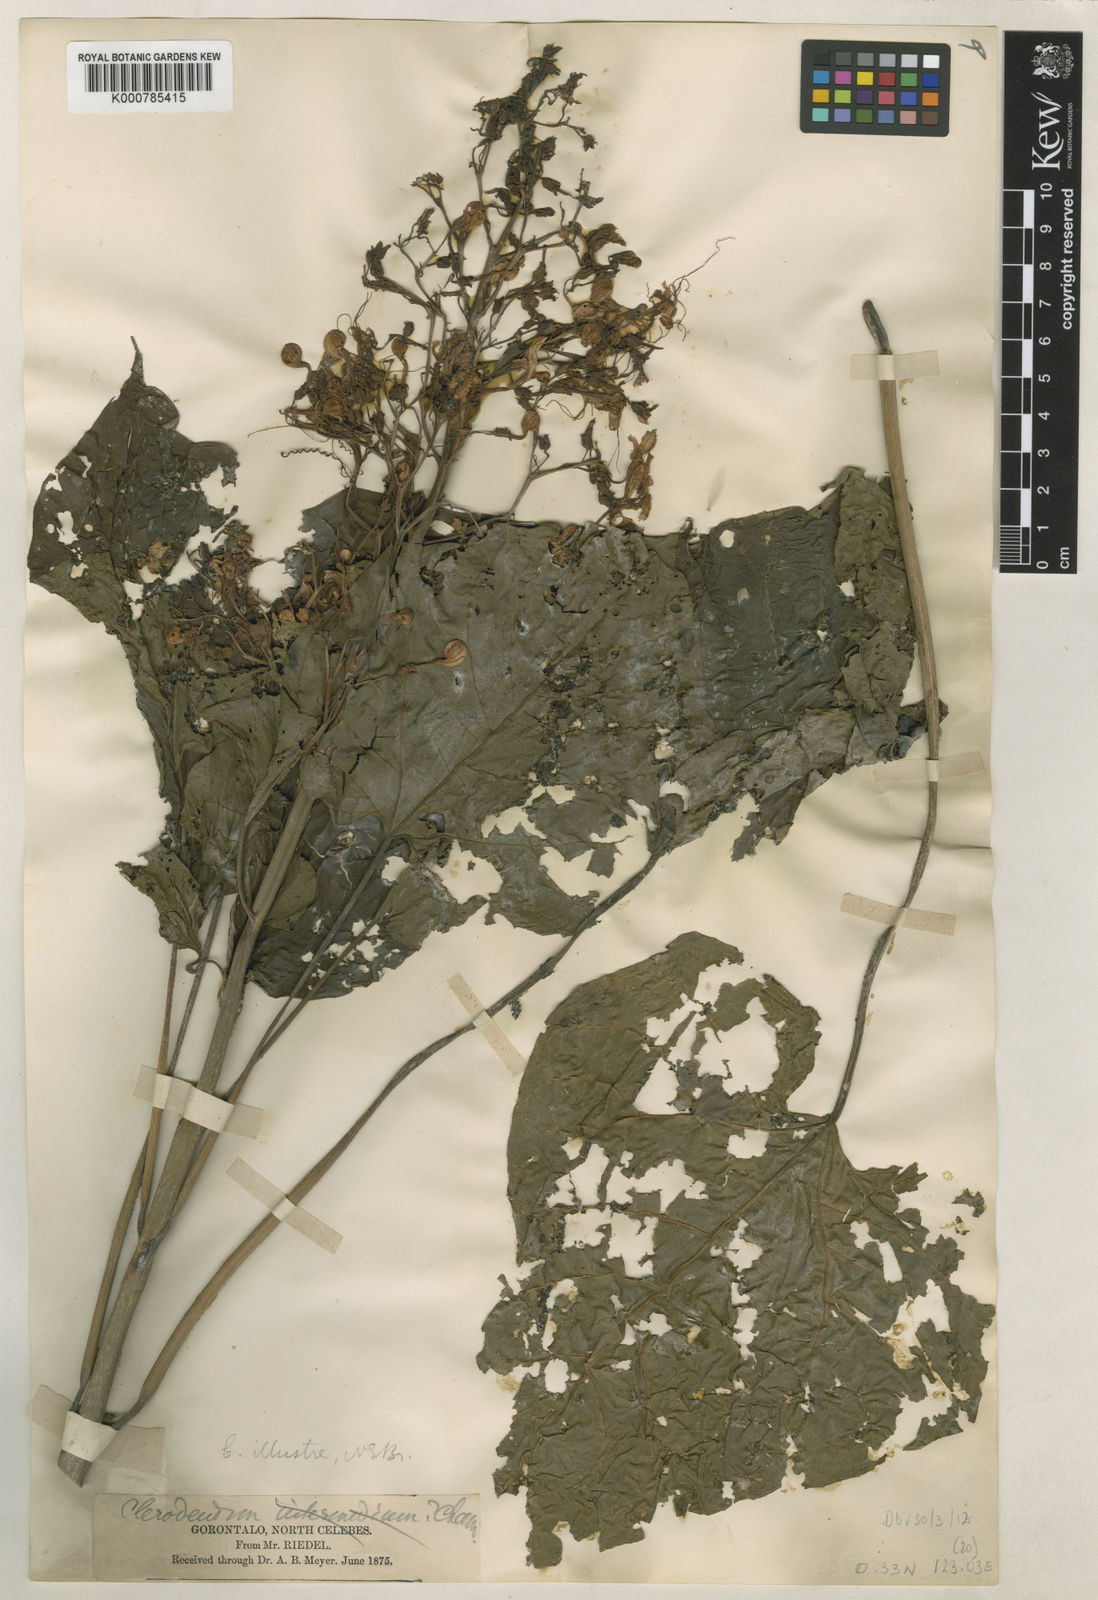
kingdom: Plantae
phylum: Tracheophyta
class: Magnoliopsida
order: Lamiales
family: Lamiaceae
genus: Clerodendrum
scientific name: Clerodendrum intermedium
